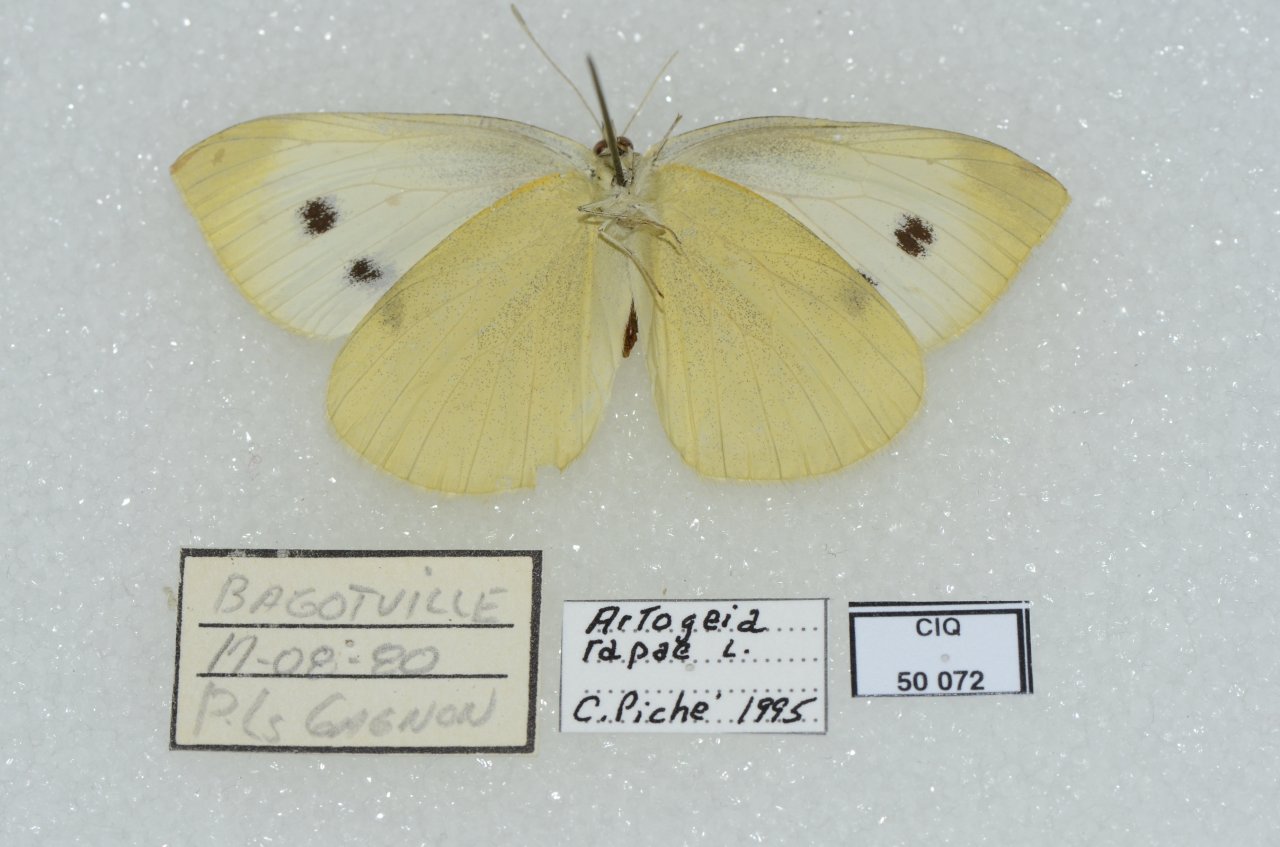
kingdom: Animalia
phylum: Arthropoda
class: Insecta
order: Lepidoptera
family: Pieridae
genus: Pieris
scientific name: Pieris rapae
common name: Cabbage White
